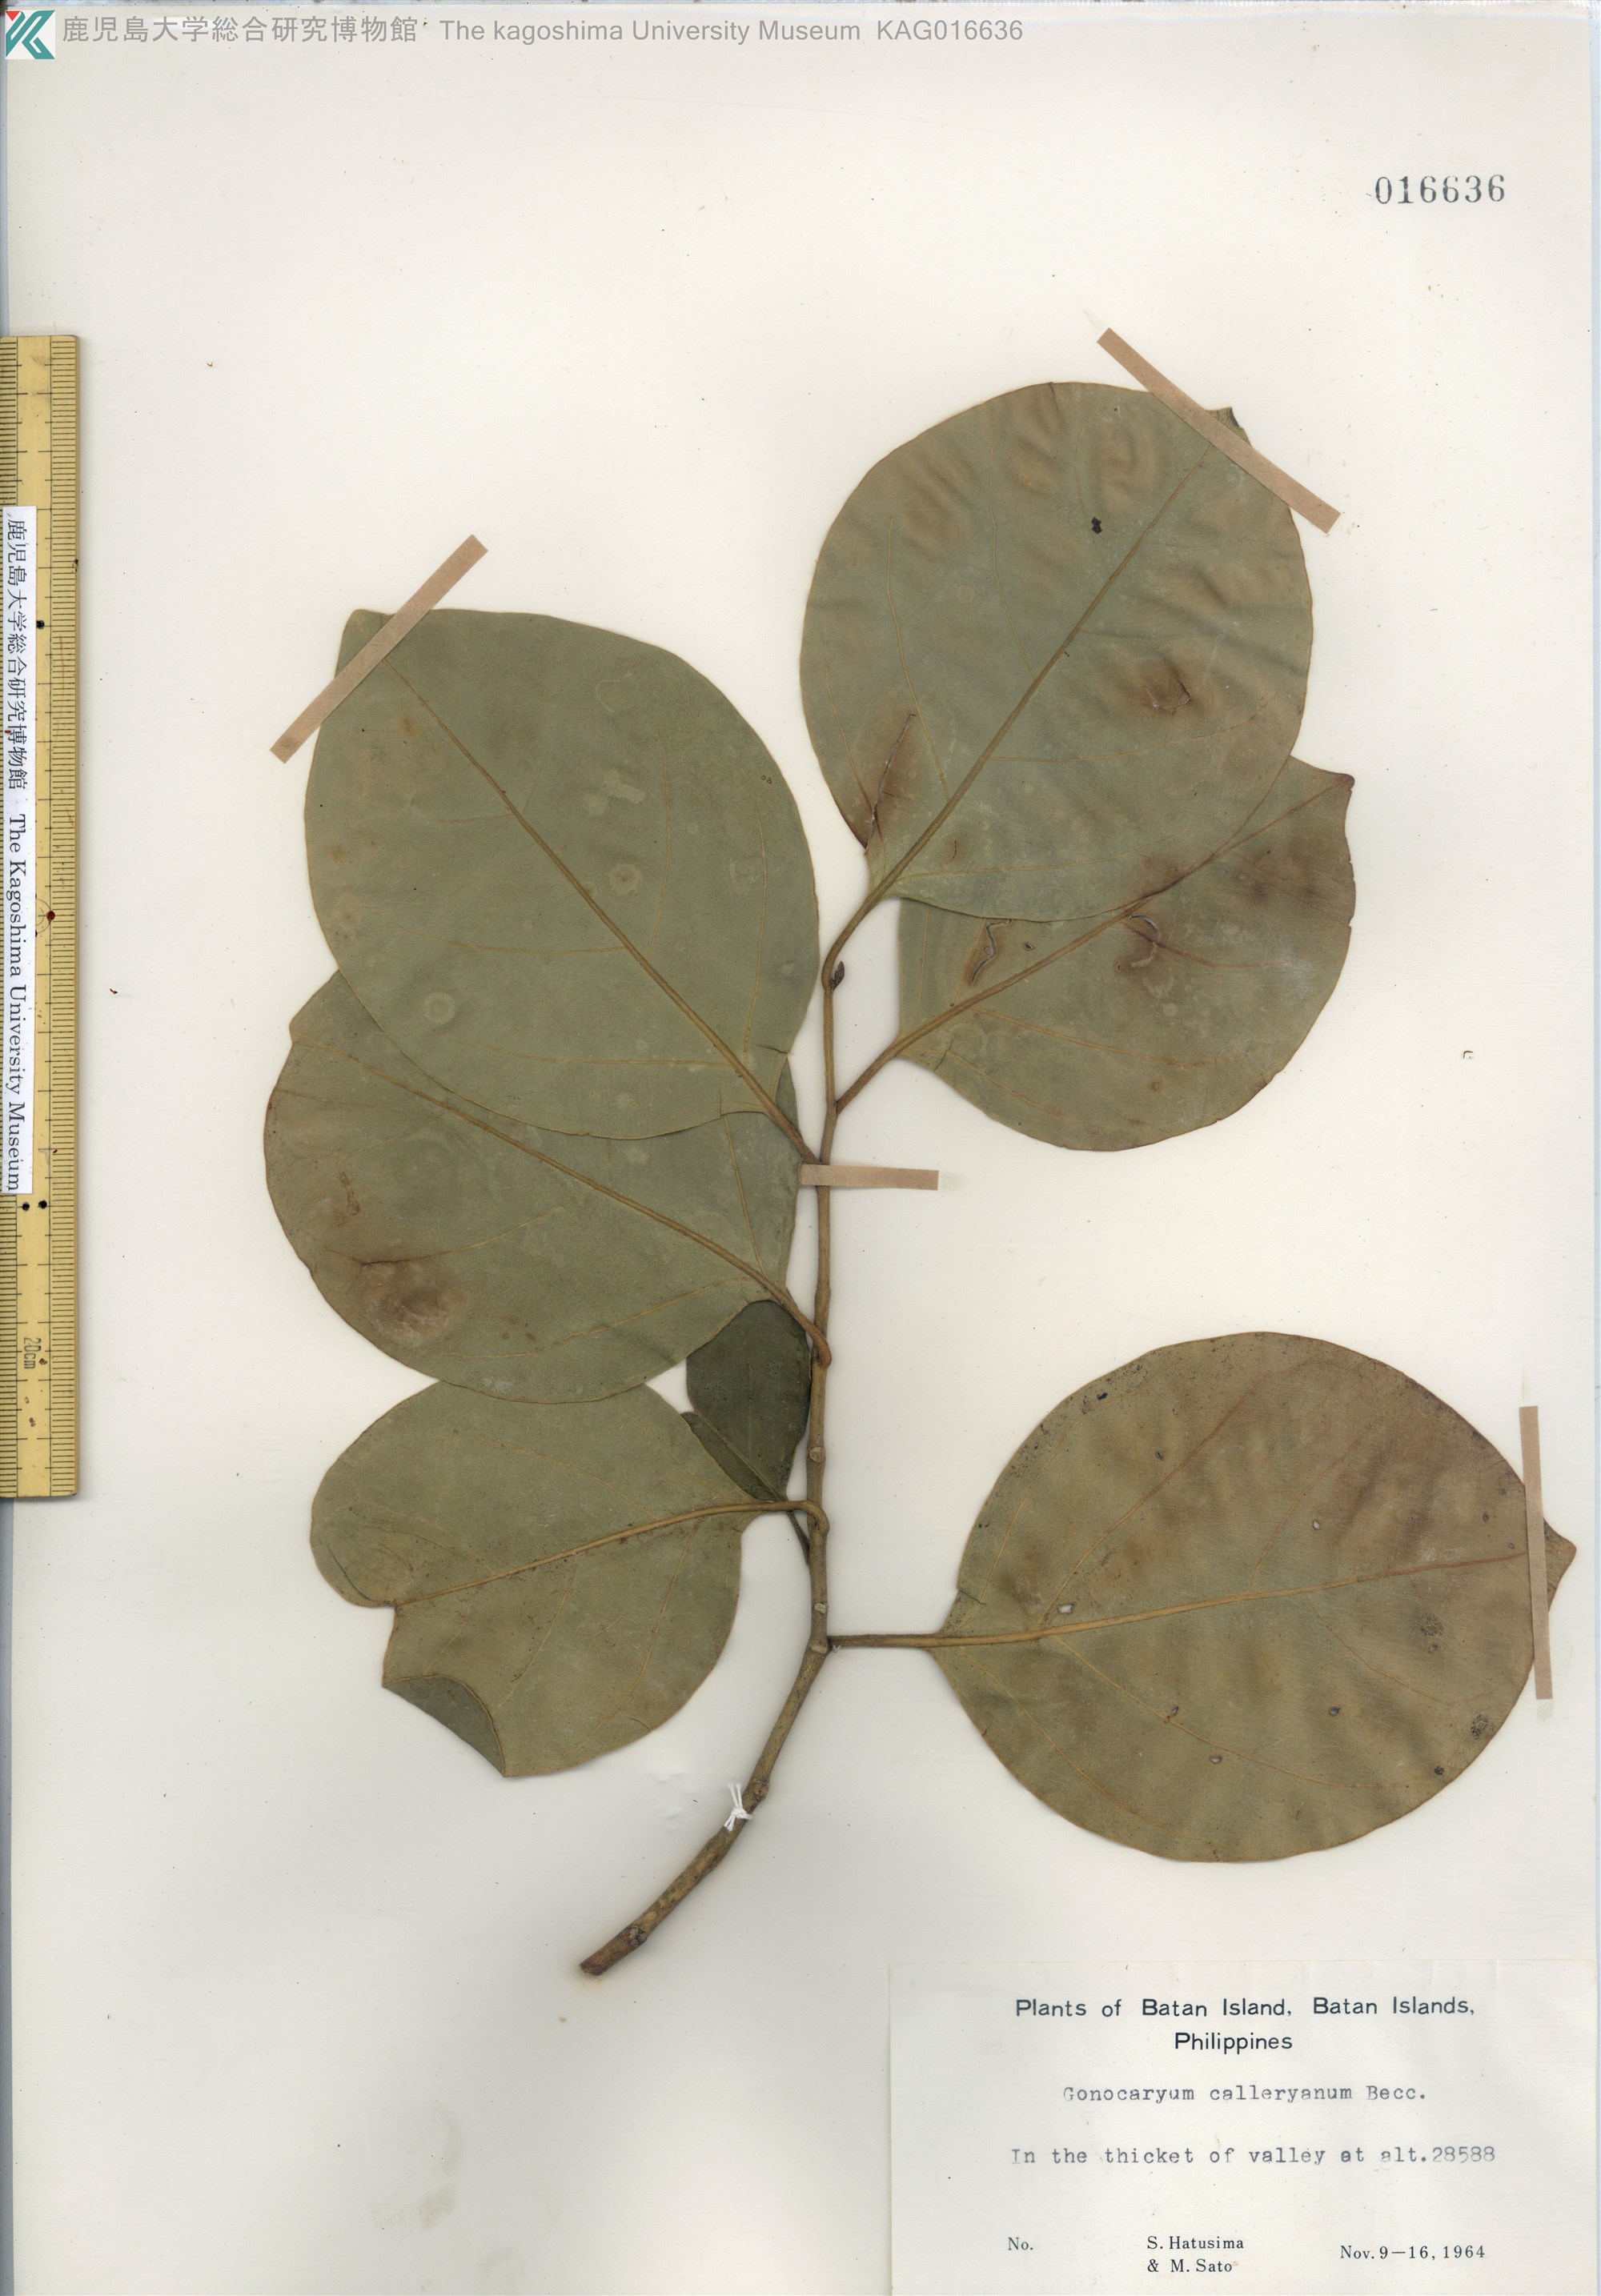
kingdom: Plantae
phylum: Tracheophyta
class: Magnoliopsida
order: Cardiopteridales
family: Cardiopteridaceae
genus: Gonocaryum
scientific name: Gonocaryum calleryanum
